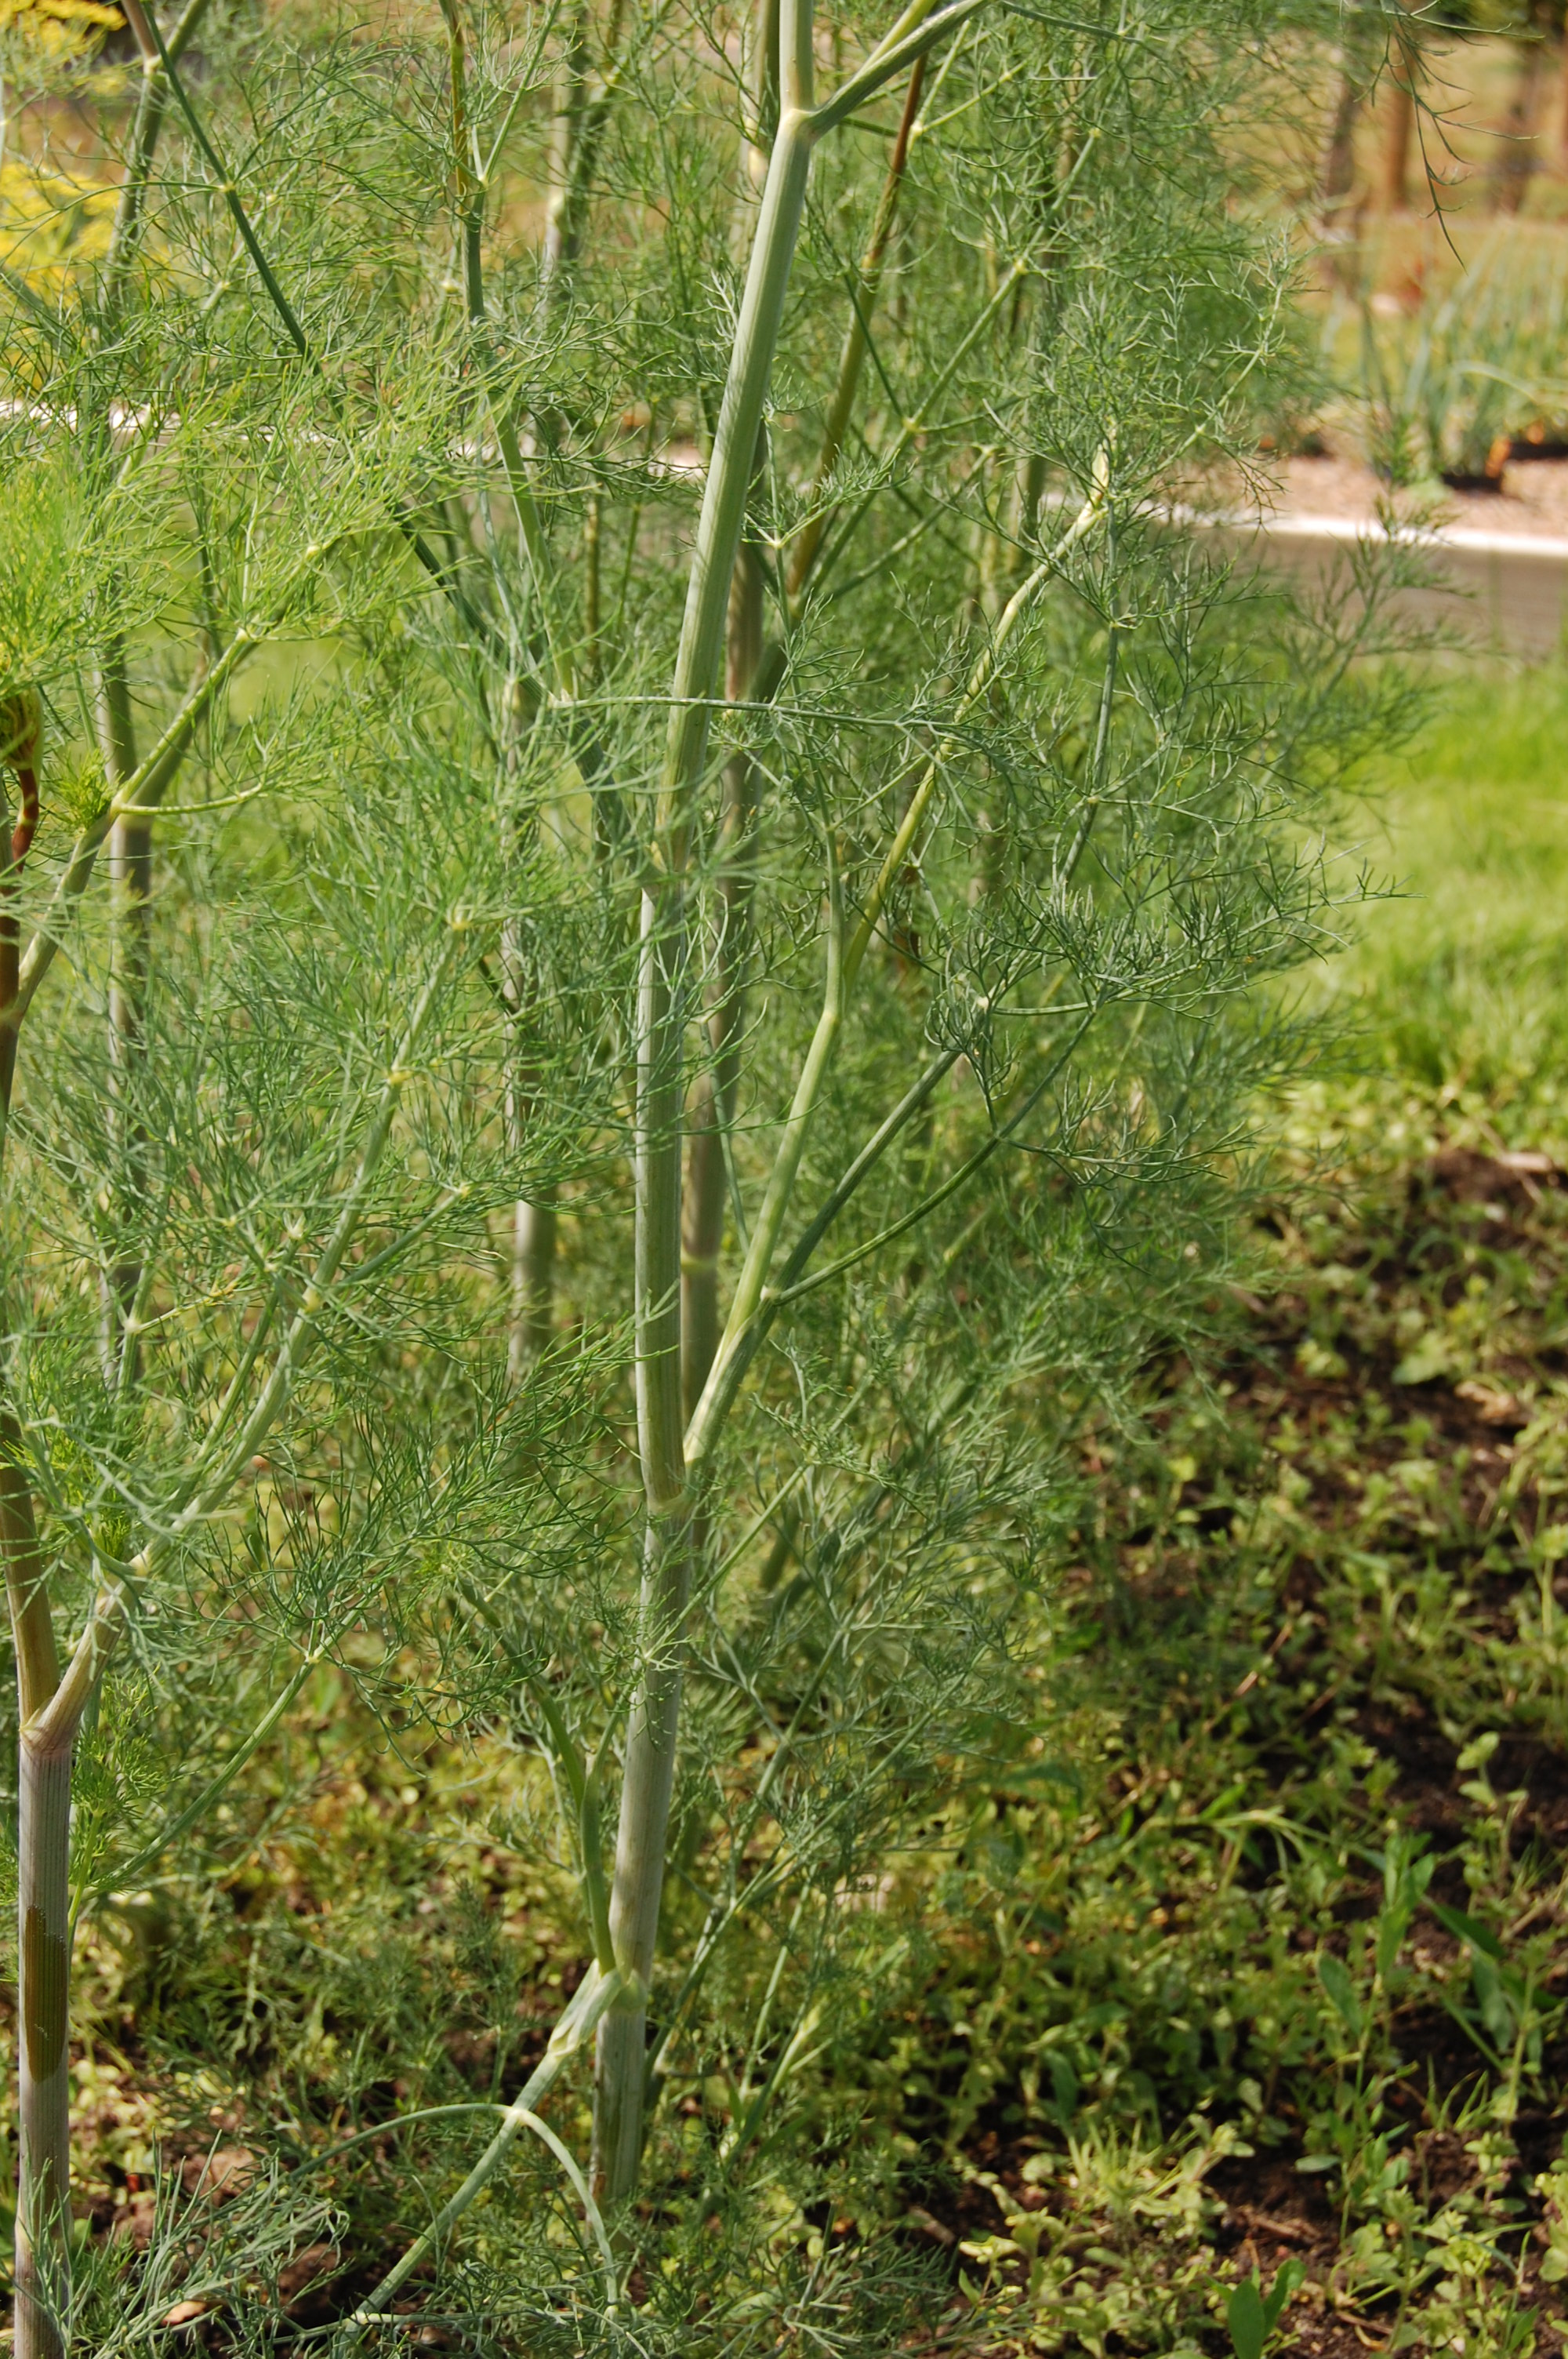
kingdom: Plantae
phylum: Tracheophyta
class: Magnoliopsida
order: Apiales
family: Apiaceae
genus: Anethum
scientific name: Anethum graveolens
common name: Dill
